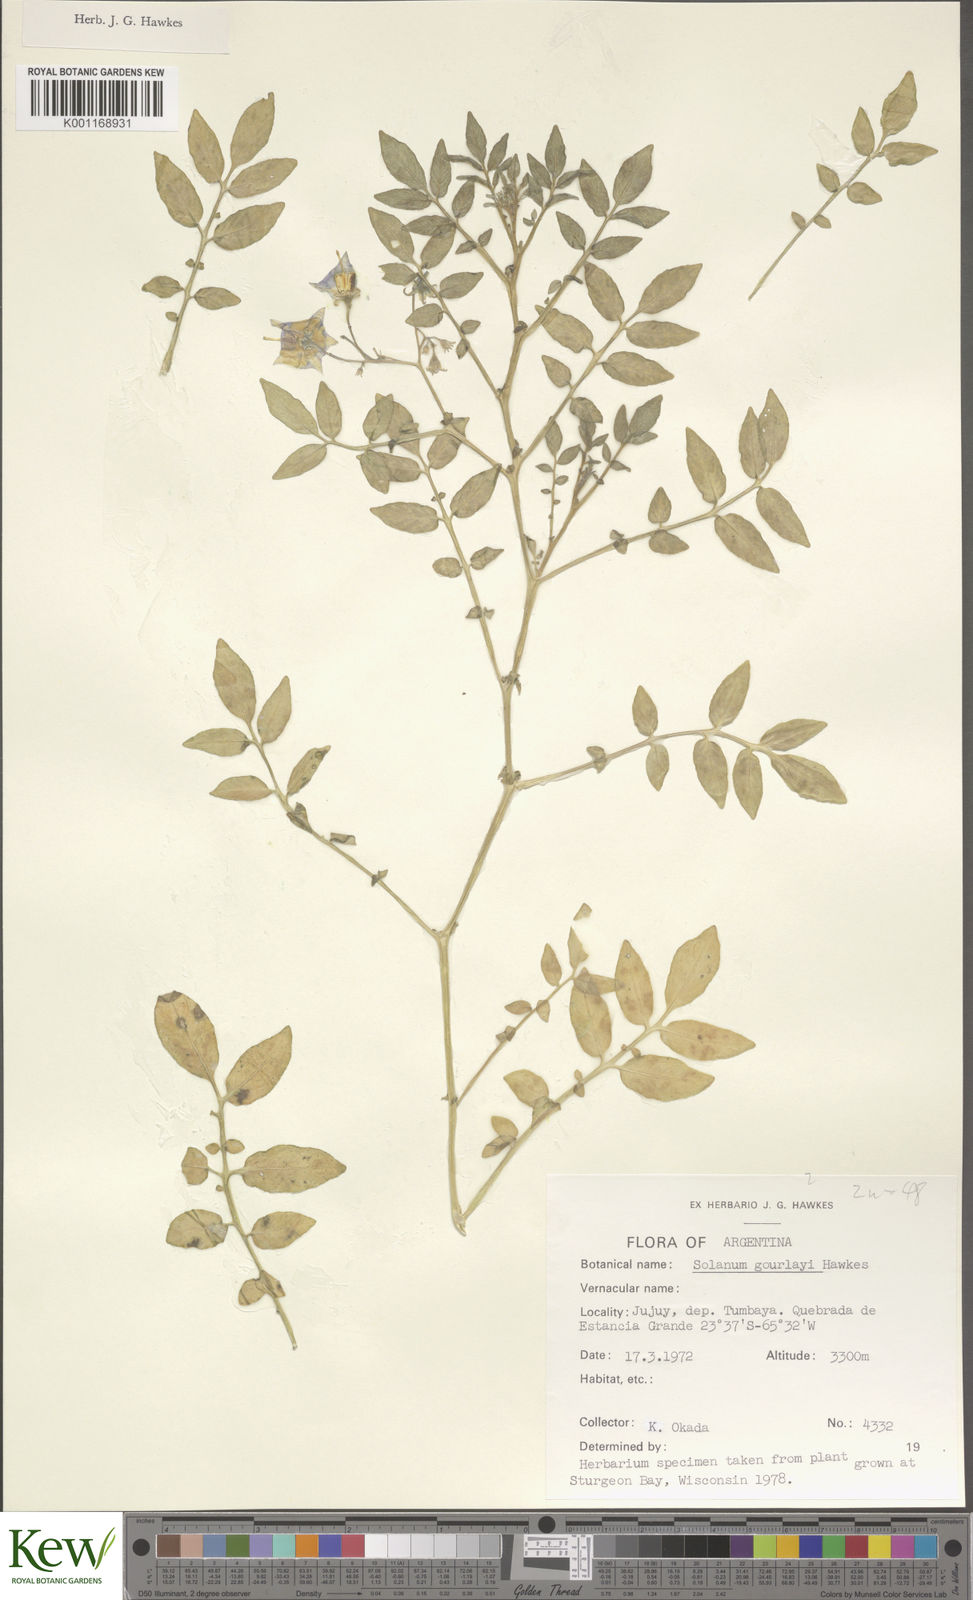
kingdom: Plantae
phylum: Tracheophyta
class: Magnoliopsida
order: Solanales
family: Solanaceae
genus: Solanum
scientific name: Solanum brevicaule
